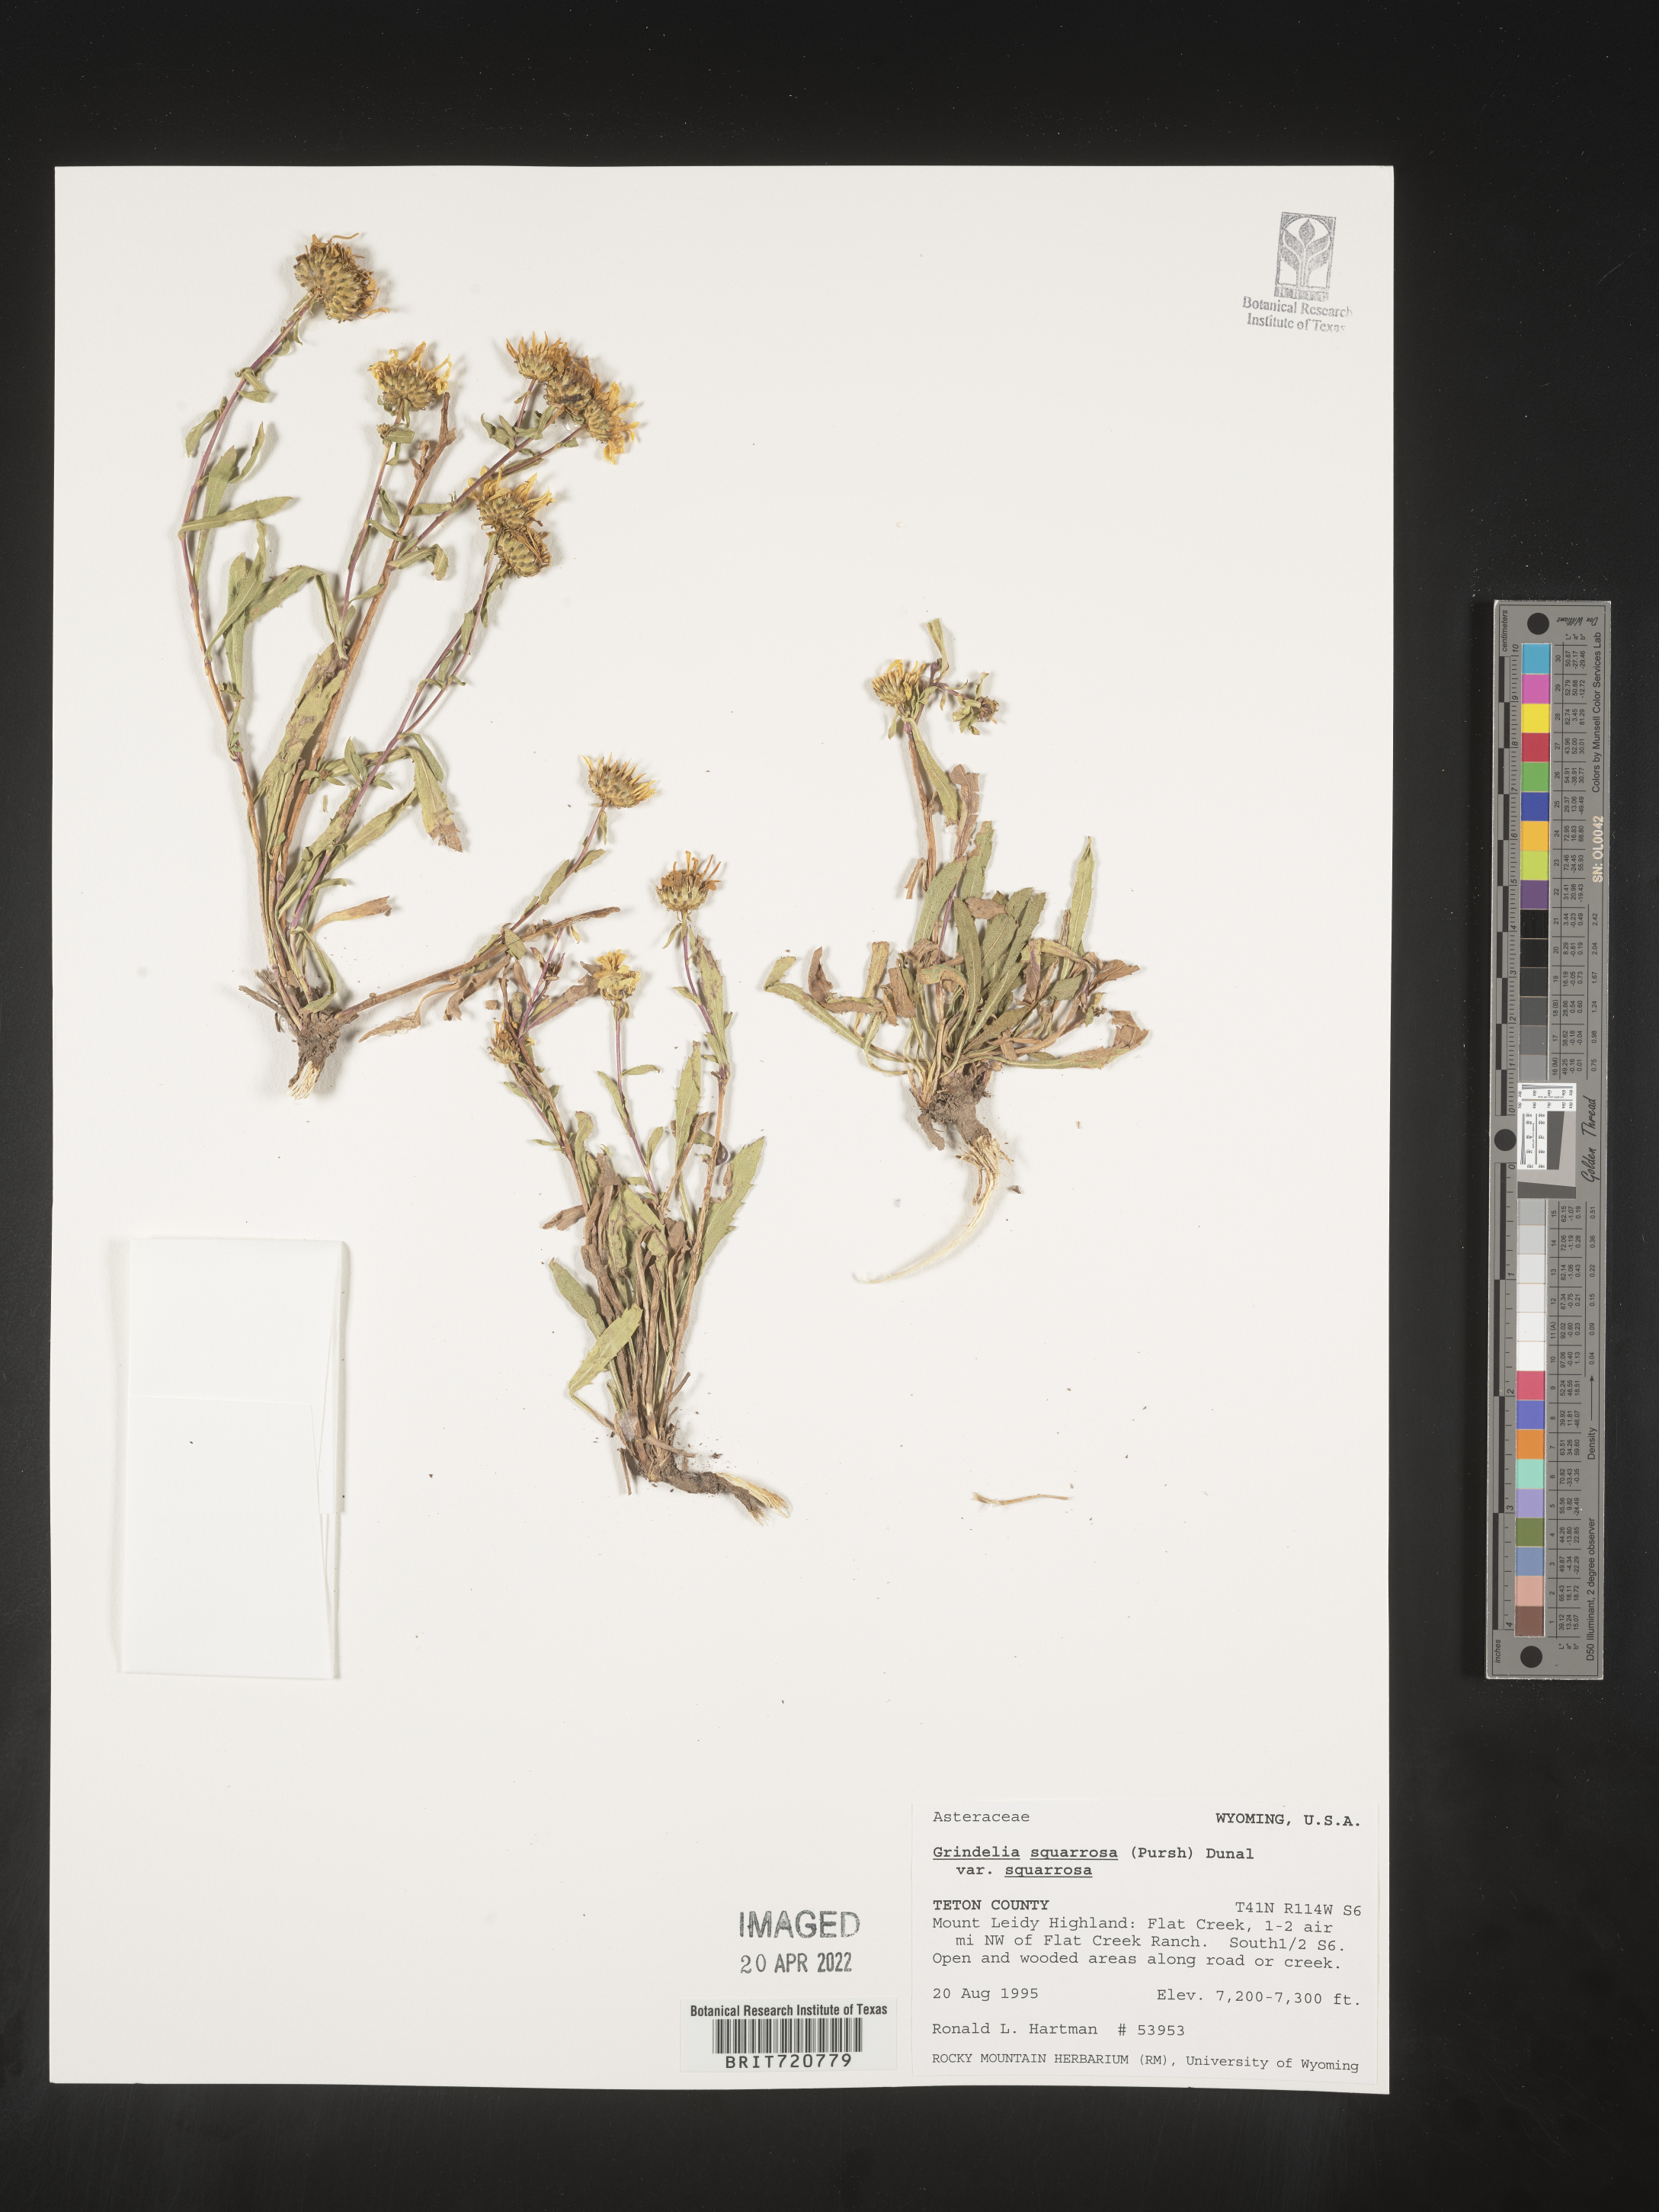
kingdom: Plantae
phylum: Tracheophyta
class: Magnoliopsida
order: Asterales
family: Asteraceae
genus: Grindelia
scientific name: Grindelia
